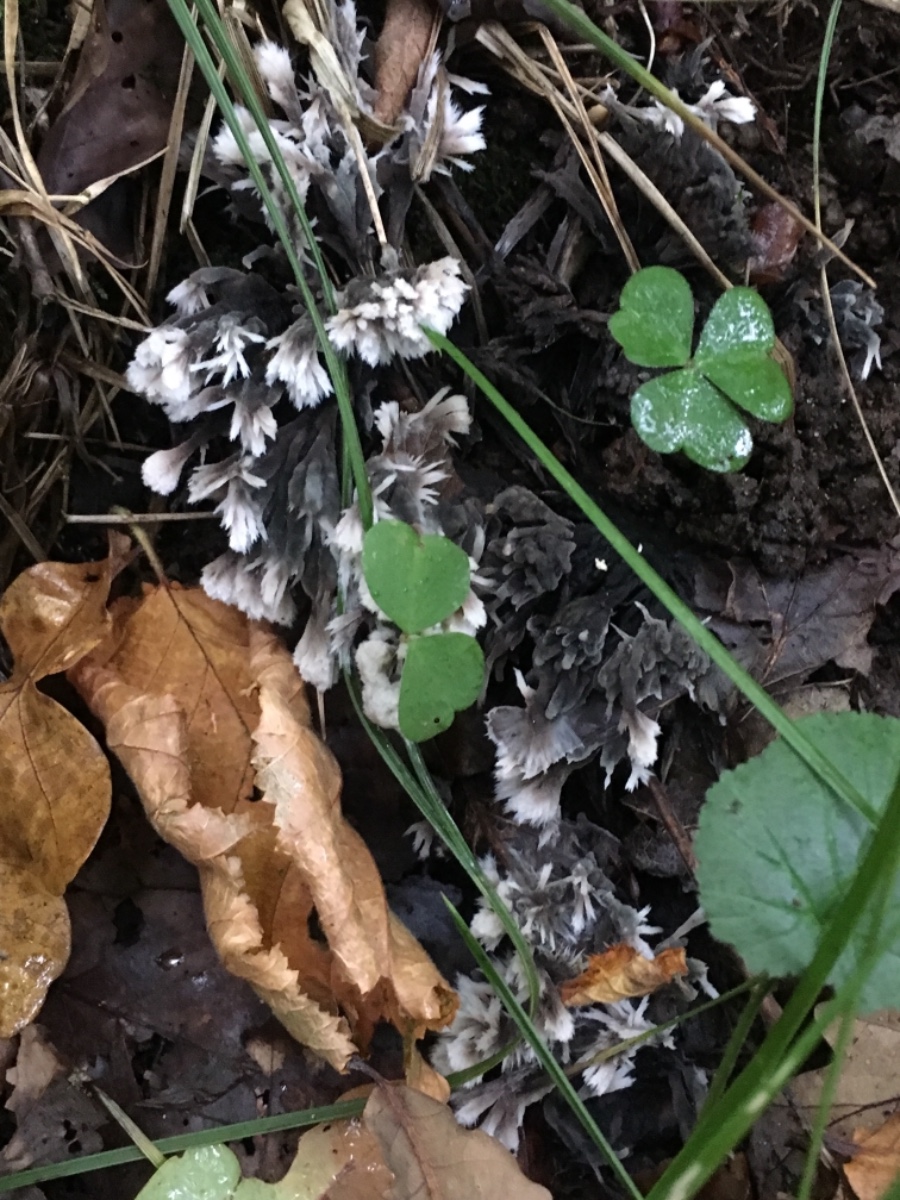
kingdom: Fungi
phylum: Basidiomycota
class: Agaricomycetes
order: Thelephorales
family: Thelephoraceae
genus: Thelephora
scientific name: Thelephora penicillata
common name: fladtrådt frynsesvamp
